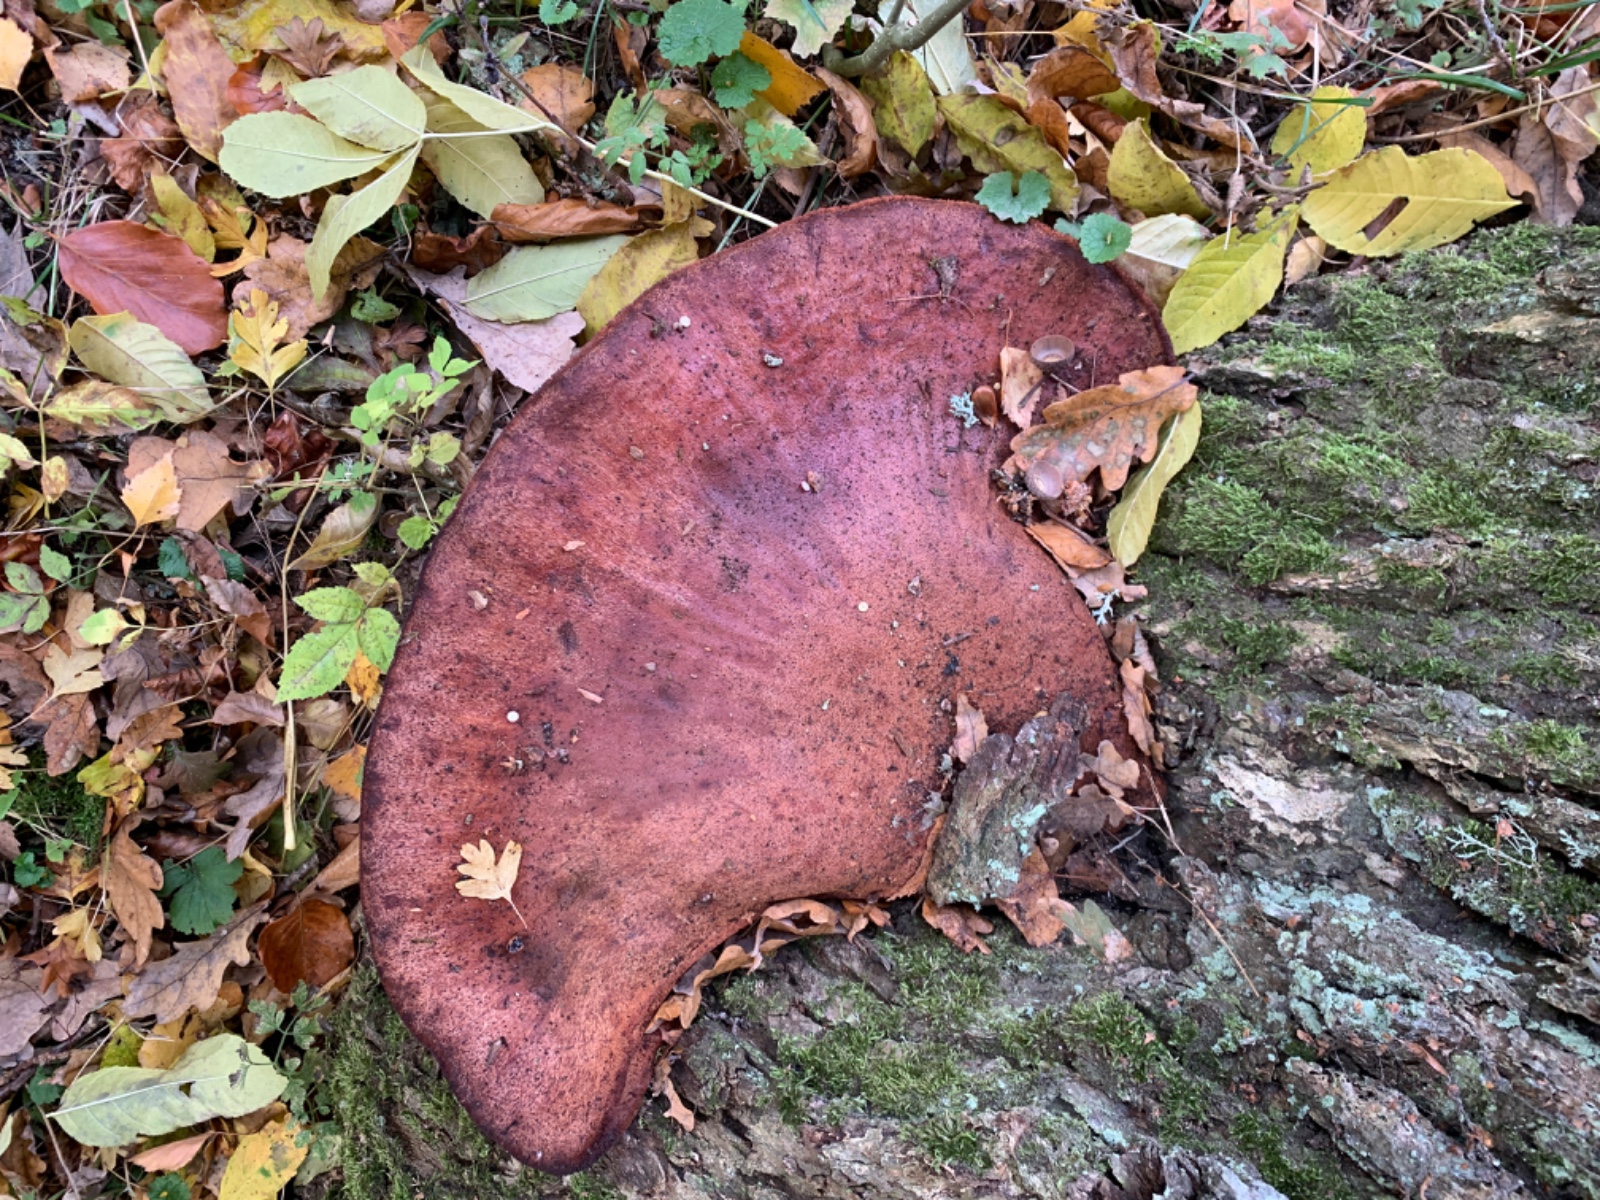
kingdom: Fungi
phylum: Basidiomycota
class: Agaricomycetes
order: Agaricales
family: Fistulinaceae
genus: Fistulina
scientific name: Fistulina hepatica
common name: oksetunge
